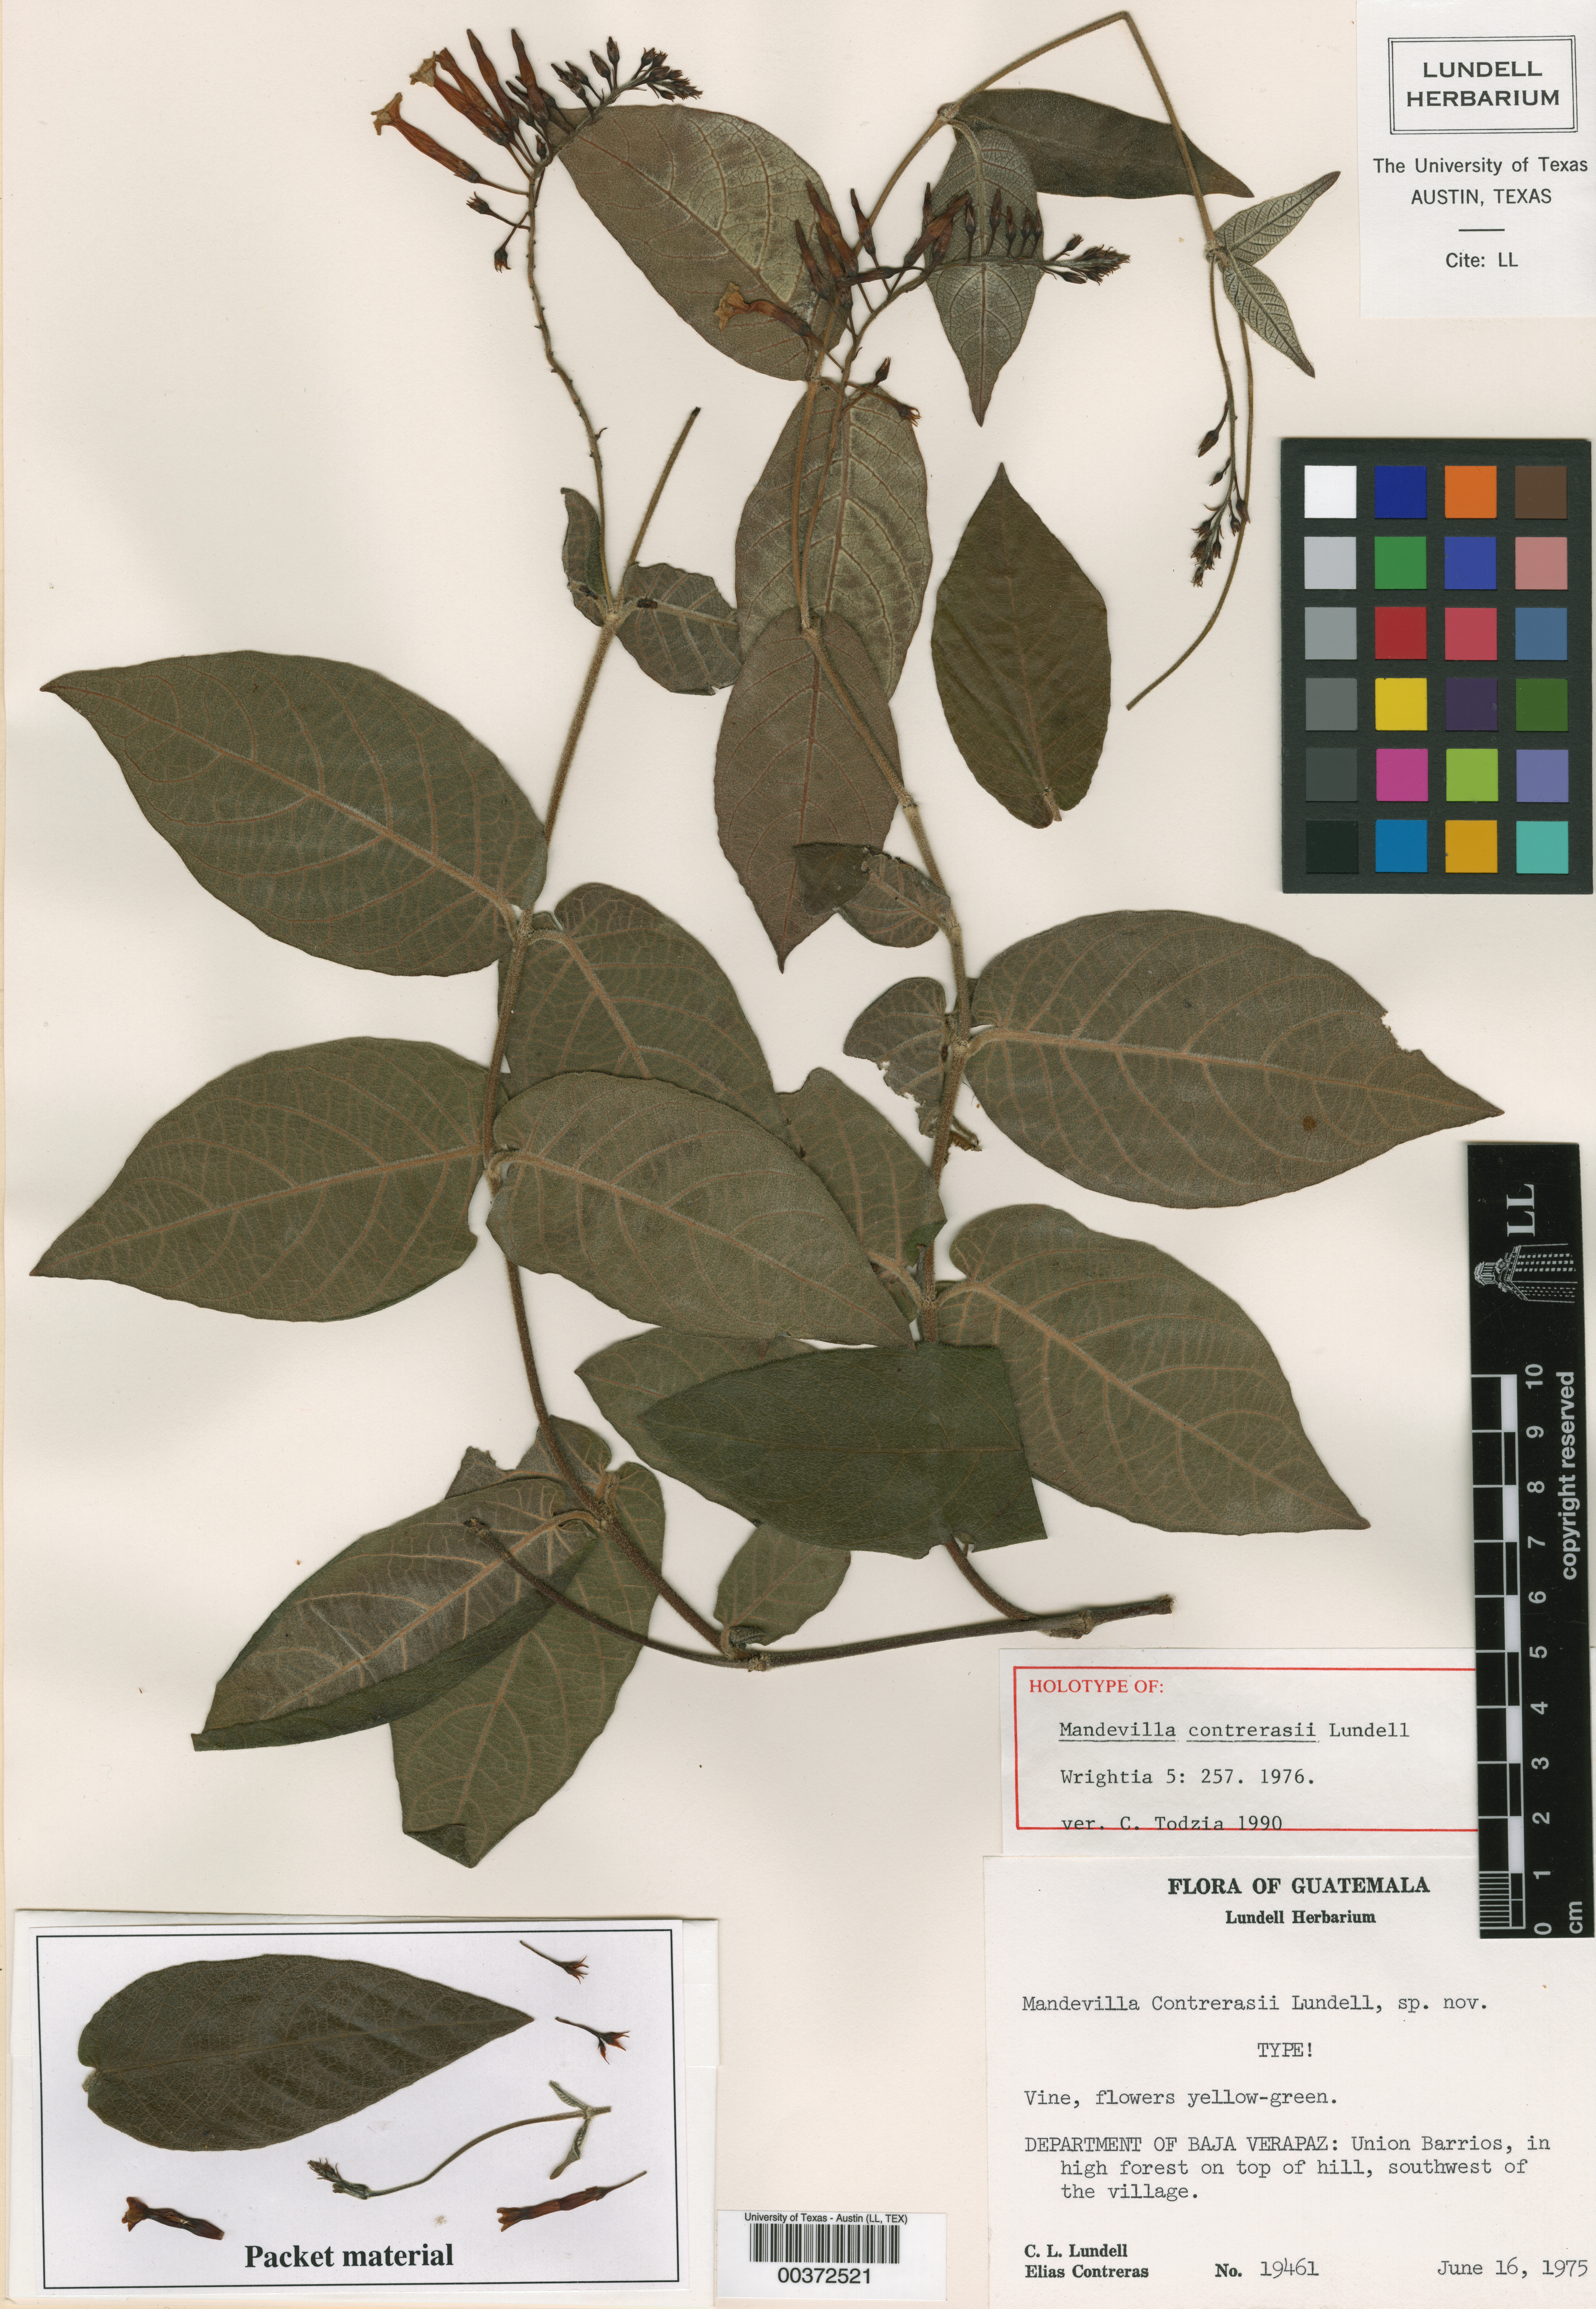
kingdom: Plantae
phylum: Tracheophyta
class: Magnoliopsida
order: Gentianales
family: Apocynaceae
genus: Mandevilla
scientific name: Mandevilla acutiloba
